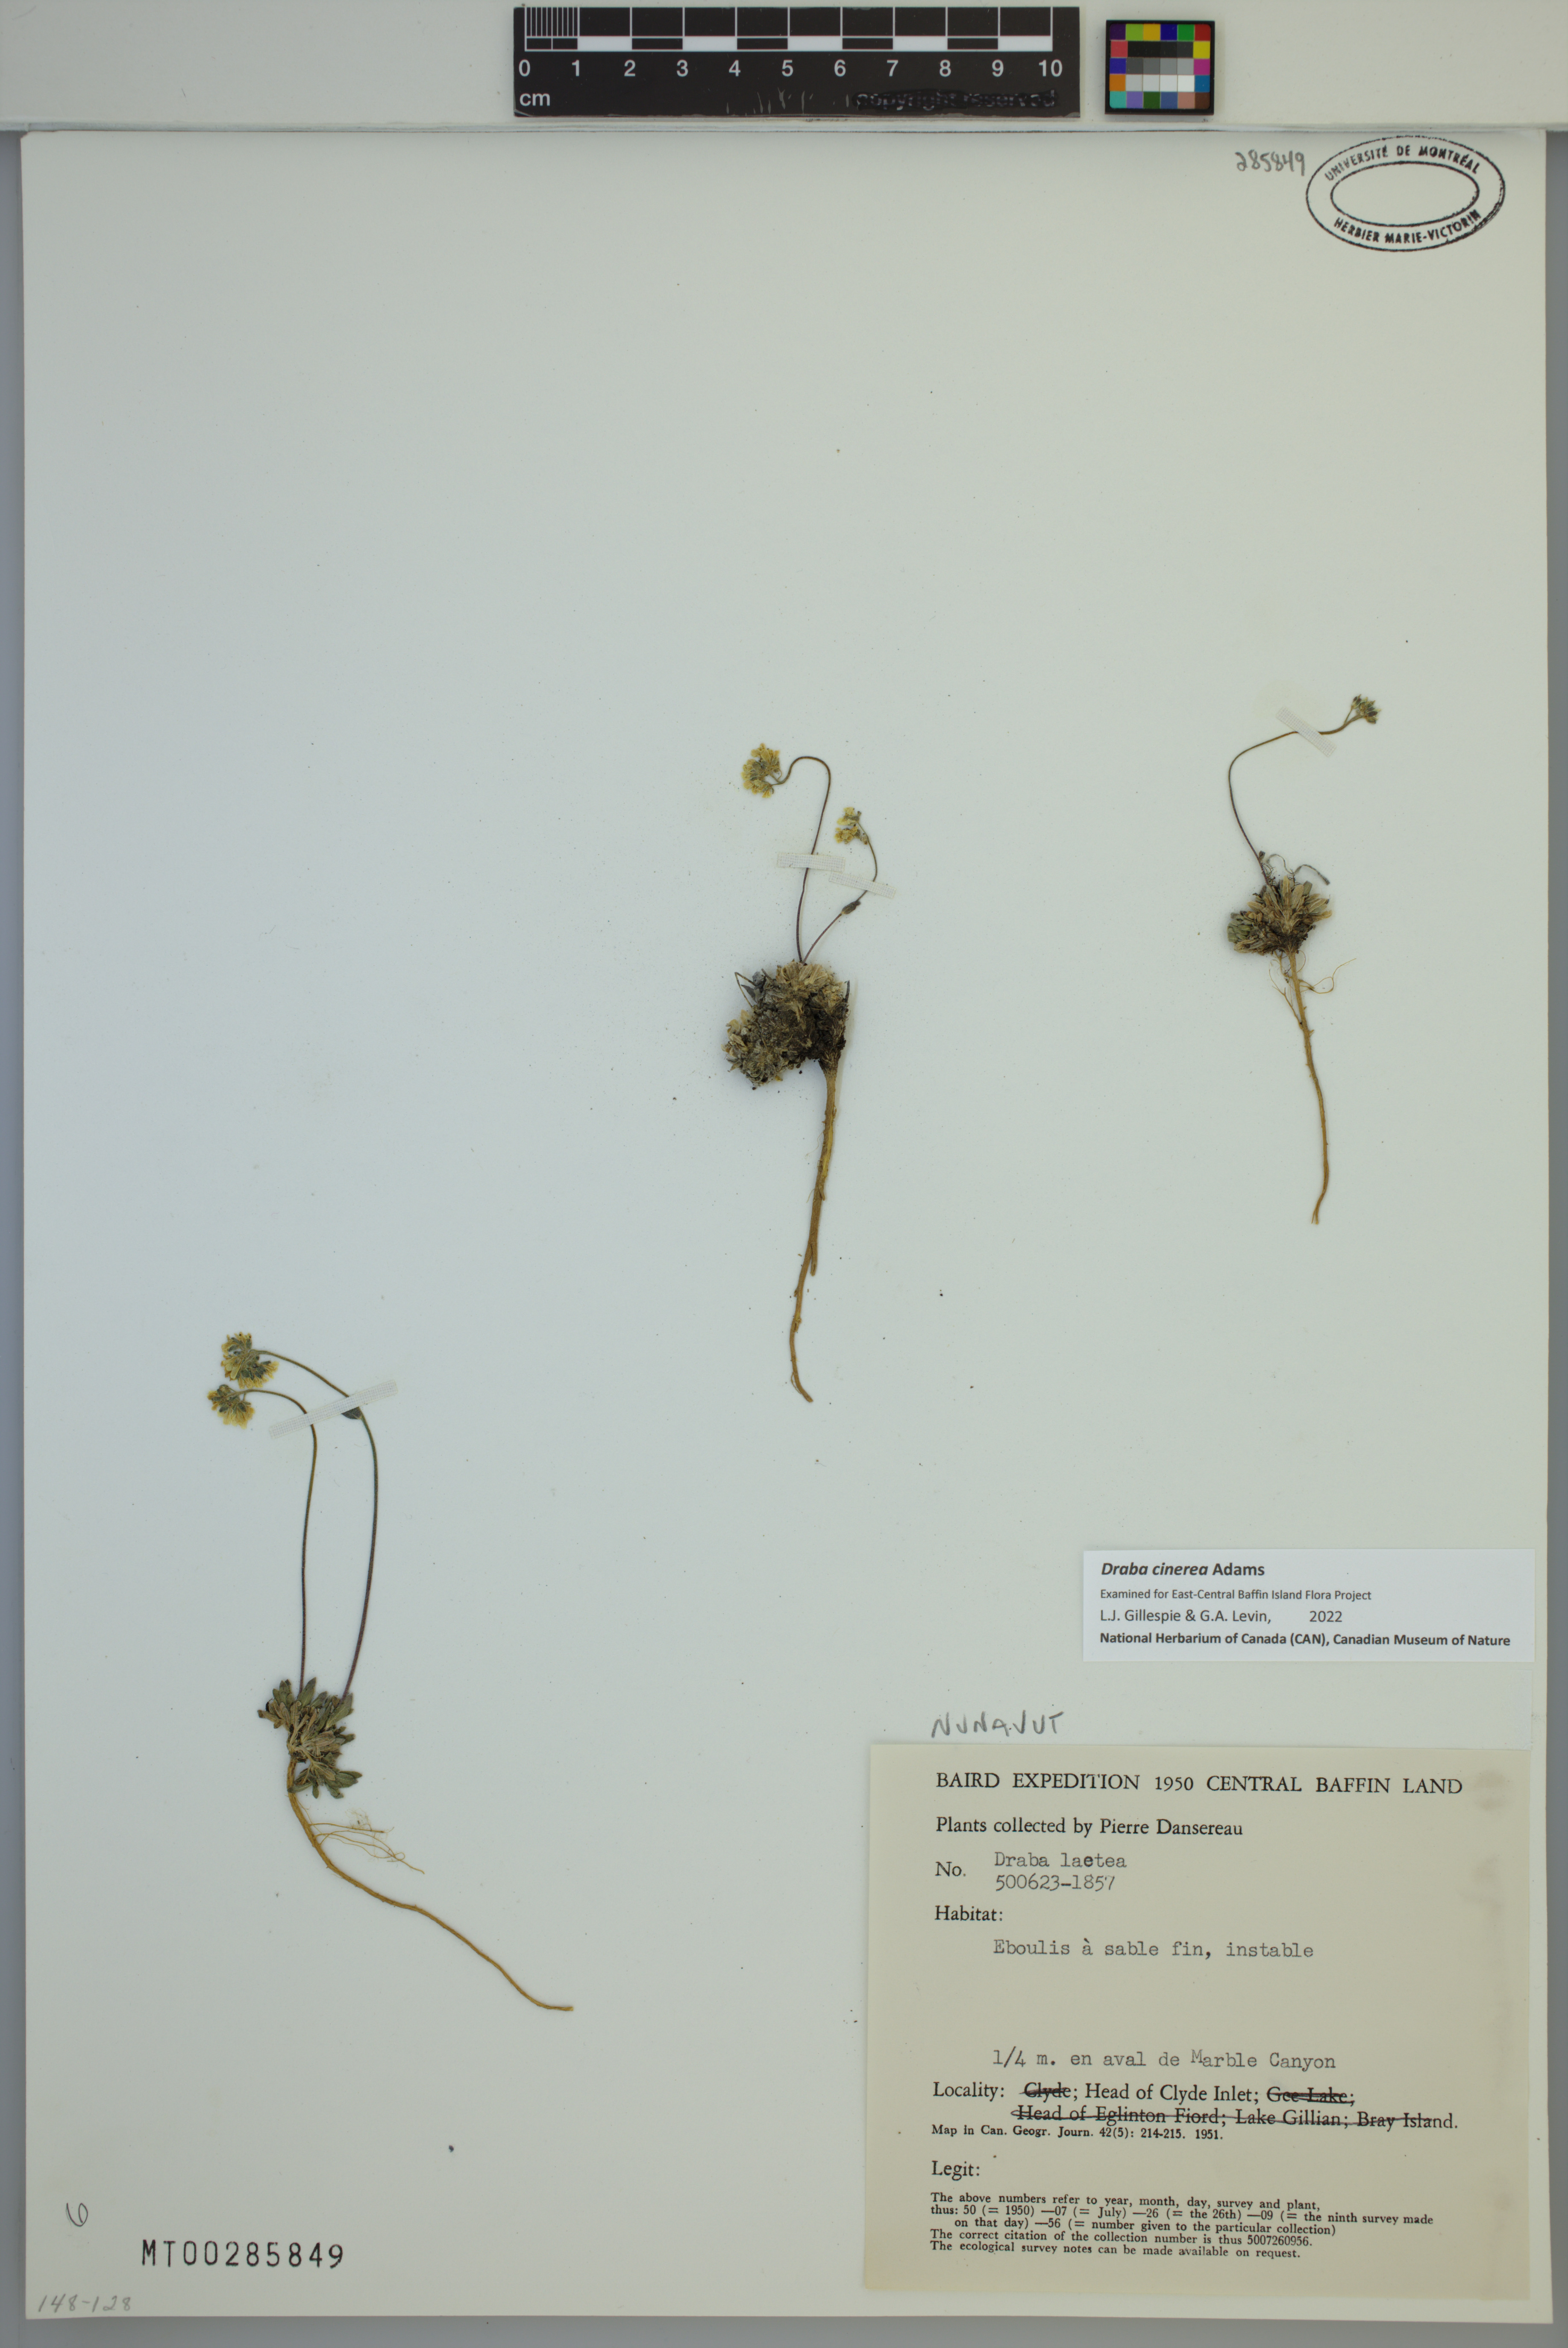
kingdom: Plantae
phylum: Tracheophyta
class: Magnoliopsida
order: Brassicales
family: Brassicaceae
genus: Draba
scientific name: Draba cinerea
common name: Ash-coloured whitlow-grass
